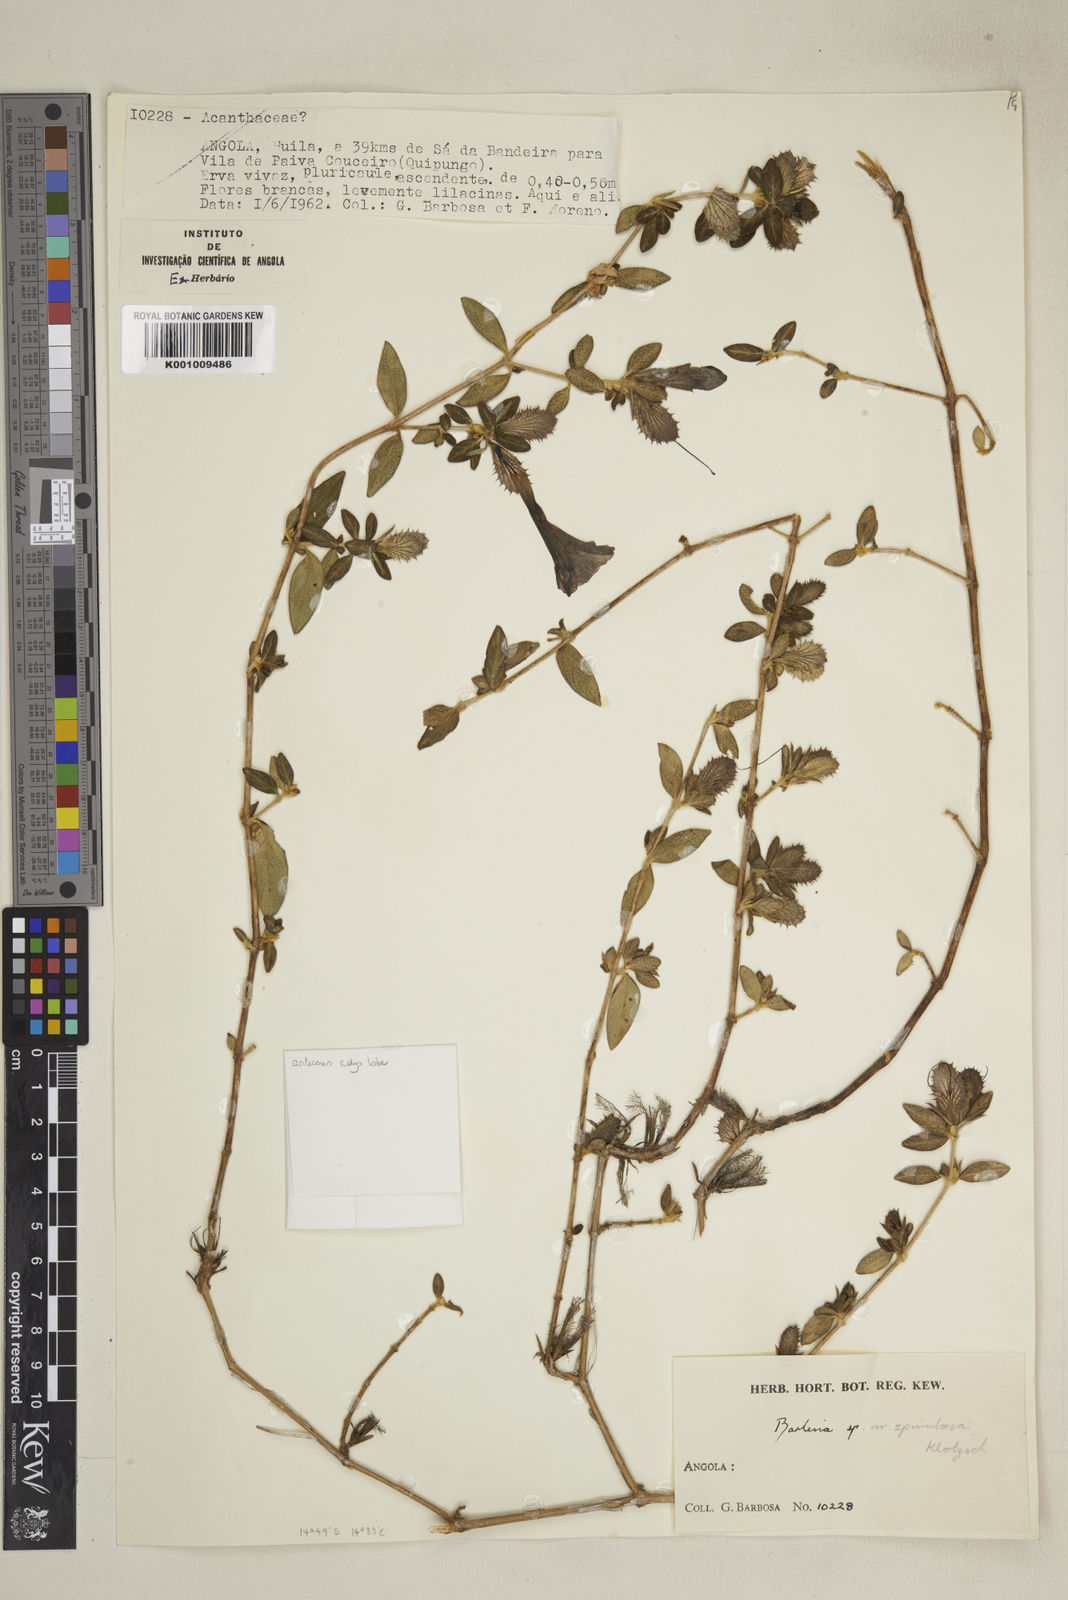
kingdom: Plantae
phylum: Tracheophyta
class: Magnoliopsida
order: Lamiales
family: Acanthaceae
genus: Barleria
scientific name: Barleria
